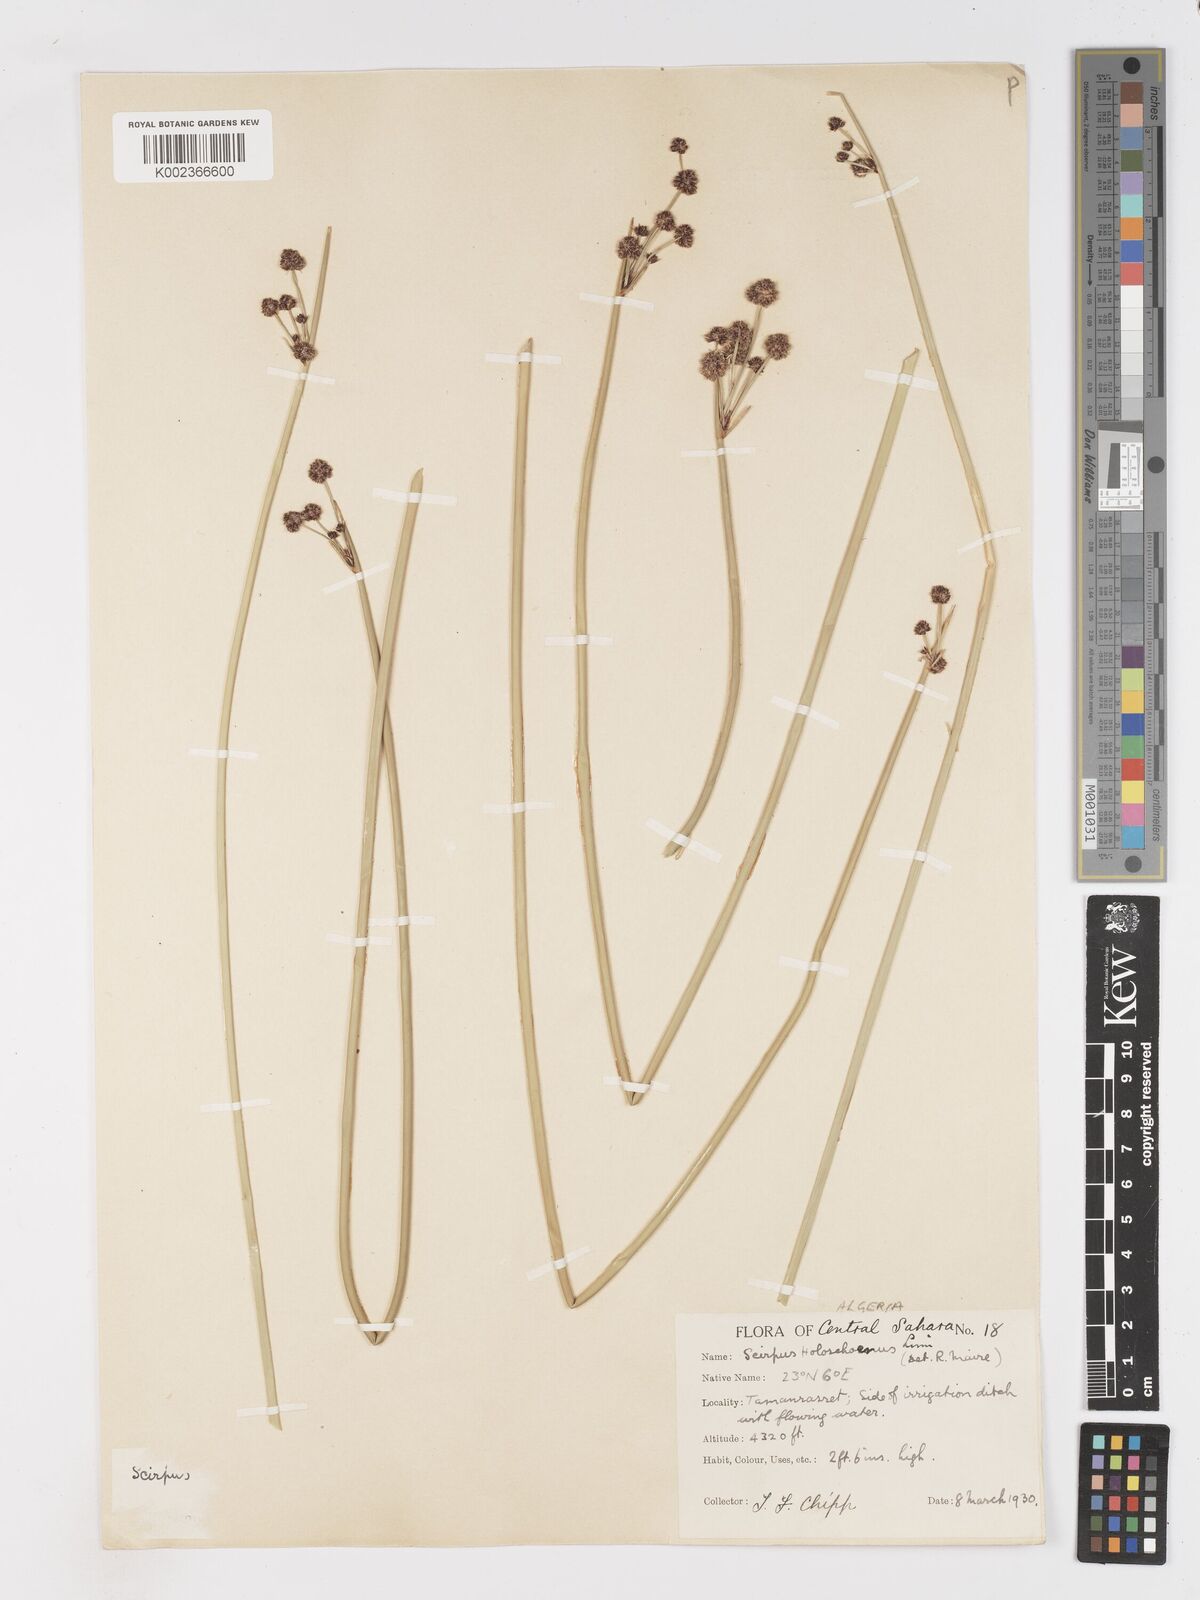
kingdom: Plantae
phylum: Tracheophyta
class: Liliopsida
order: Poales
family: Cyperaceae
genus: Scirpoides
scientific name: Scirpoides holoschoenus
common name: Round-headed club-rush
